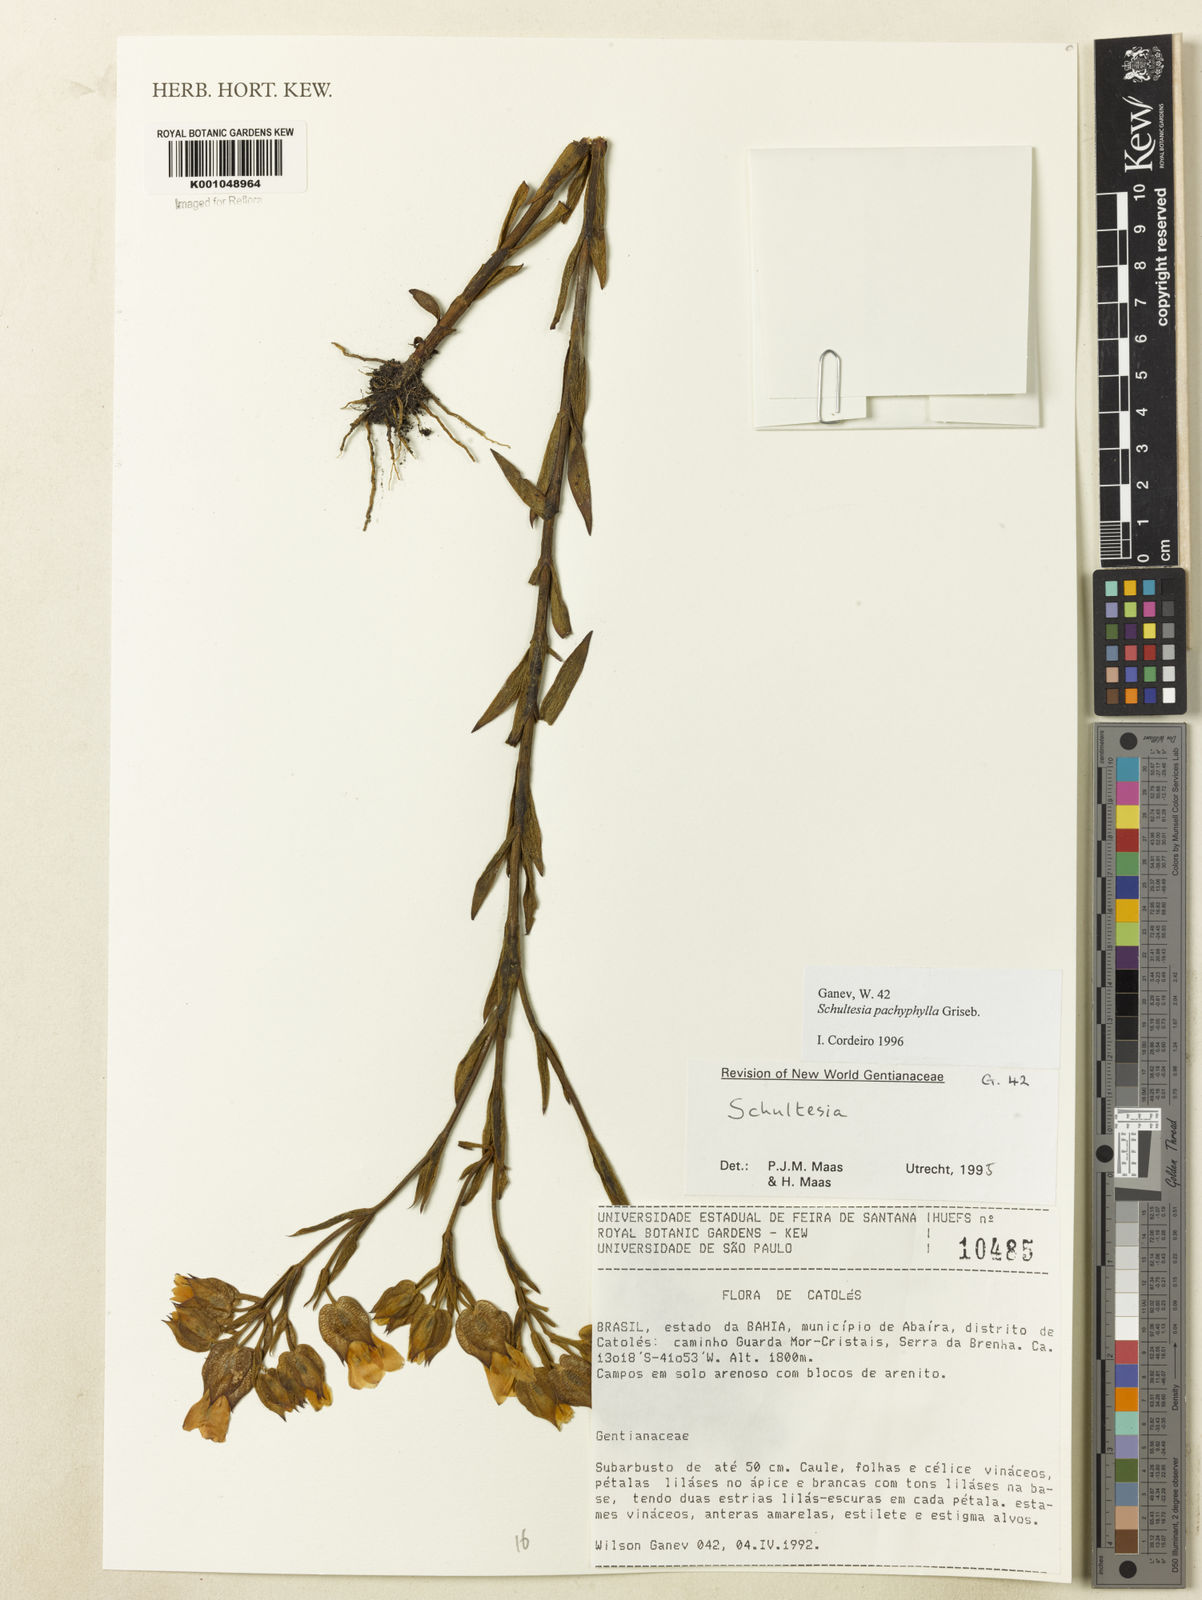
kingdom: Plantae
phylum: Tracheophyta
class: Magnoliopsida
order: Gentianales
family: Gentianaceae
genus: Schultesia
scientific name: Schultesia pachyphylla
